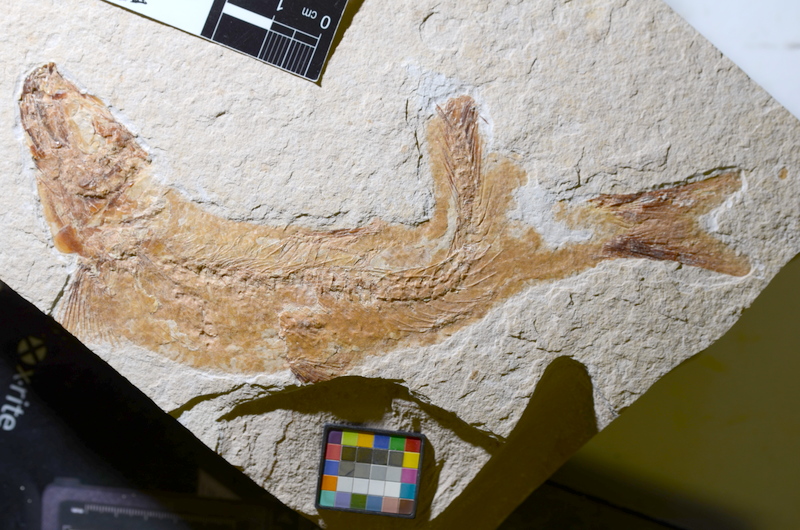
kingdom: Animalia
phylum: Chordata
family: Ascalaboidae
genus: Tharsis
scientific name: Tharsis dubius
